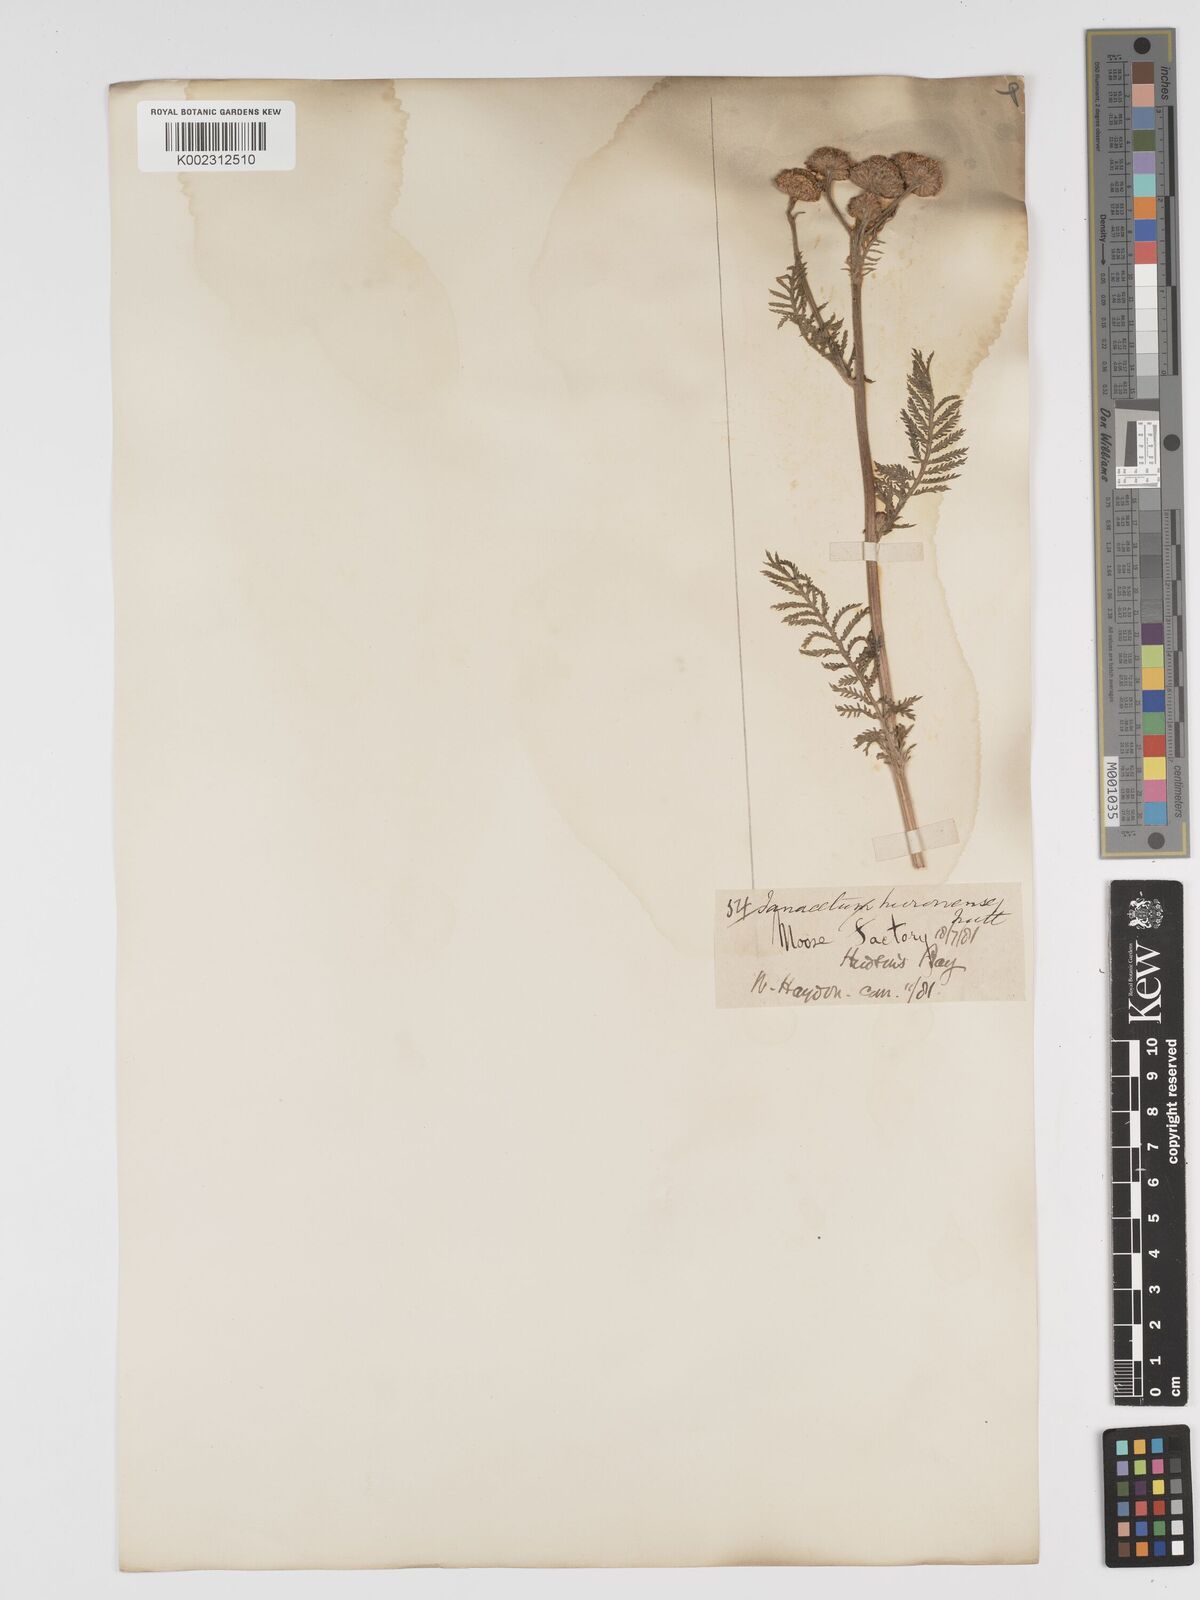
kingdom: Plantae
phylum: Tracheophyta
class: Magnoliopsida
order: Asterales
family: Asteraceae
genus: Tanacetum
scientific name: Tanacetum bipinnatum
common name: Dwarf tansy
